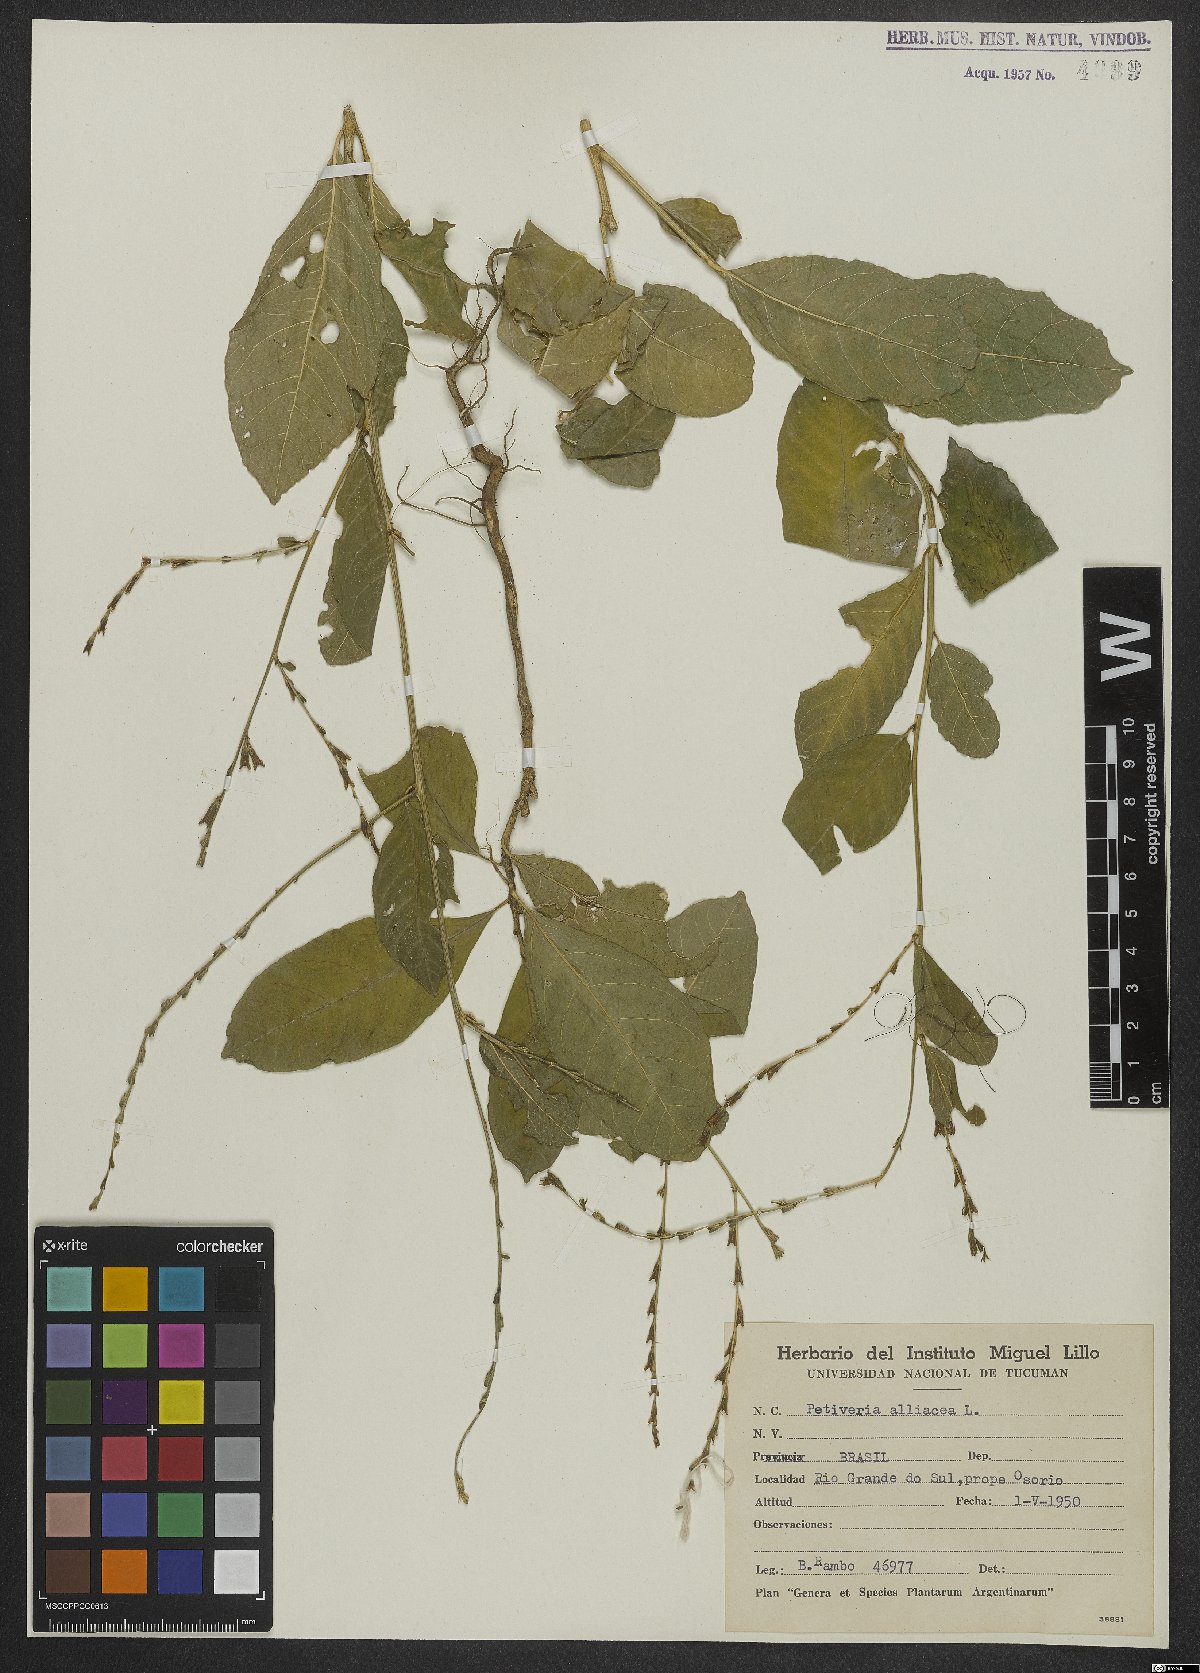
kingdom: Plantae
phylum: Tracheophyta
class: Magnoliopsida
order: Caryophyllales
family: Phytolaccaceae
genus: Petiveria
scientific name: Petiveria alliacea
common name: Garlicweed
